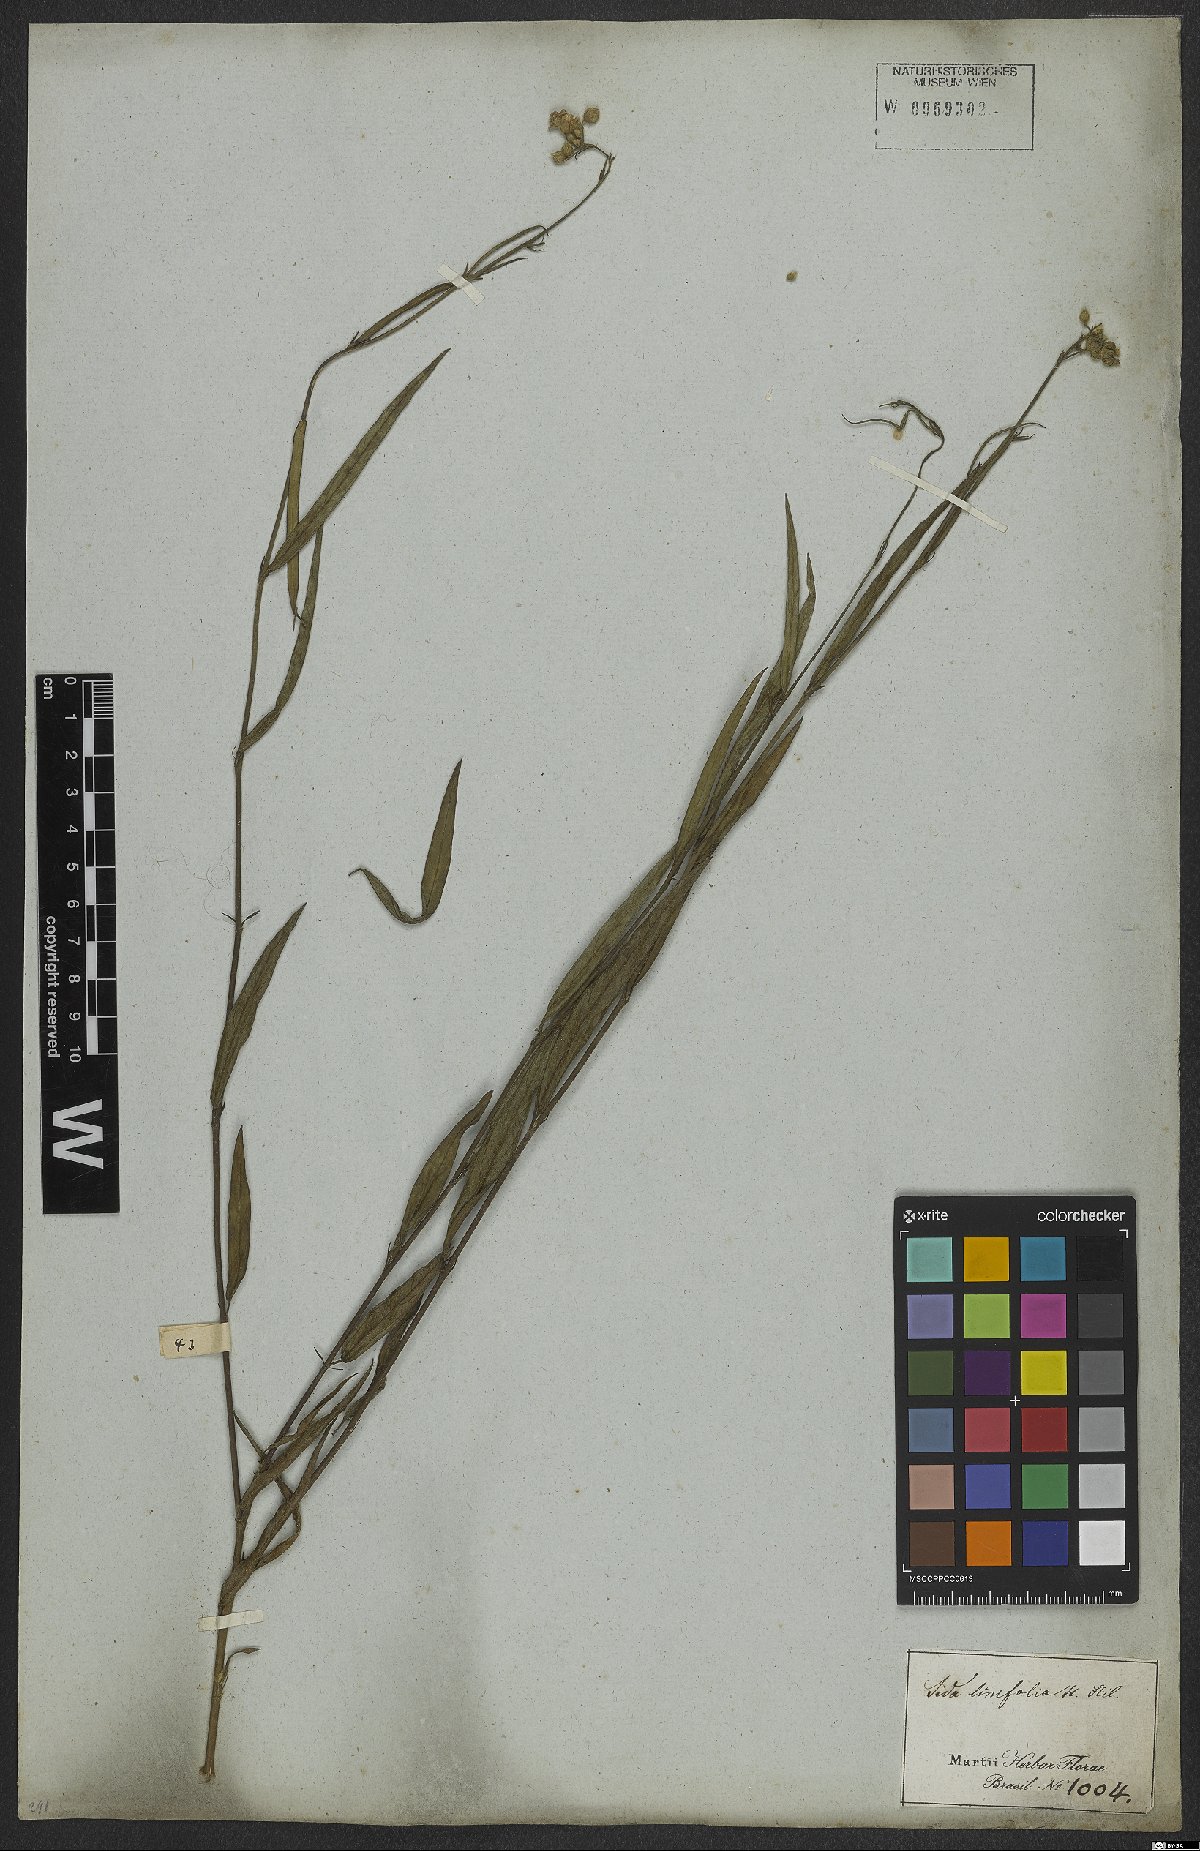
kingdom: Plantae
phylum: Tracheophyta
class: Magnoliopsida
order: Malvales
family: Malvaceae
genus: Sida
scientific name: Sida linifolia
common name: Flaxleaf fanpetals
